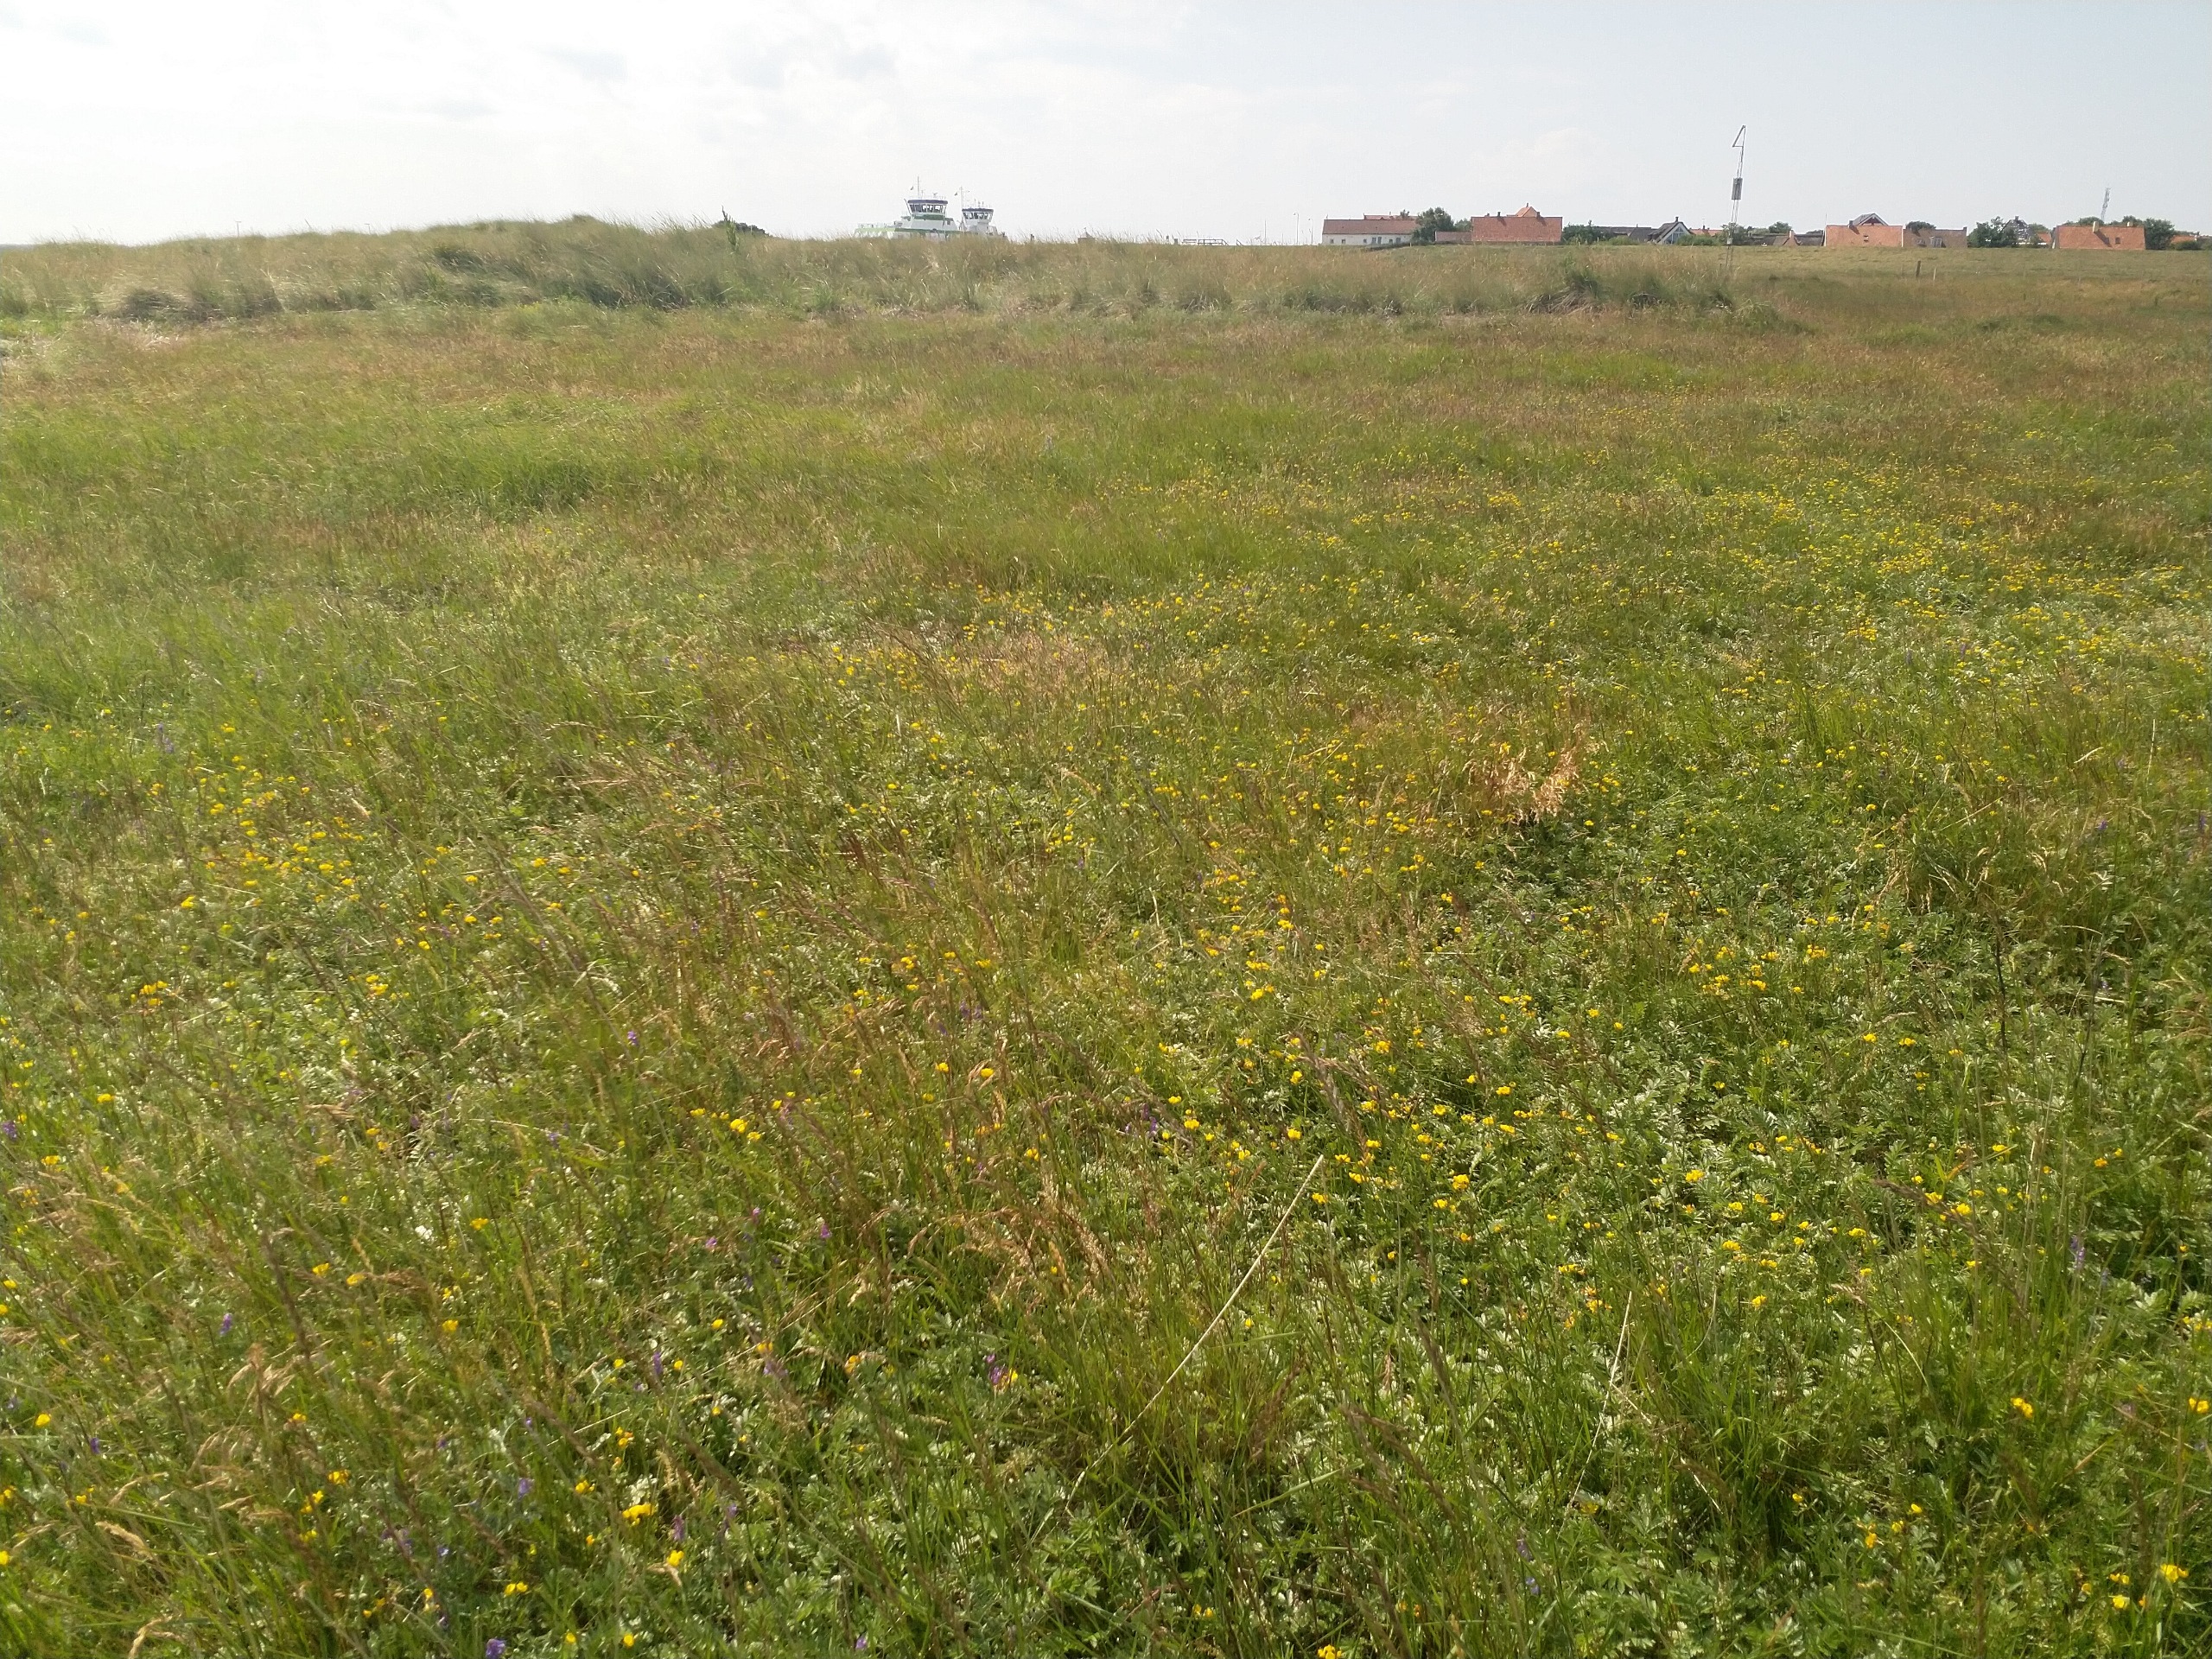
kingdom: Plantae
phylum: Tracheophyta
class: Magnoliopsida
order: Fabales
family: Fabaceae
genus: Vicia
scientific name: Vicia cracca
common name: Muse-vikke
